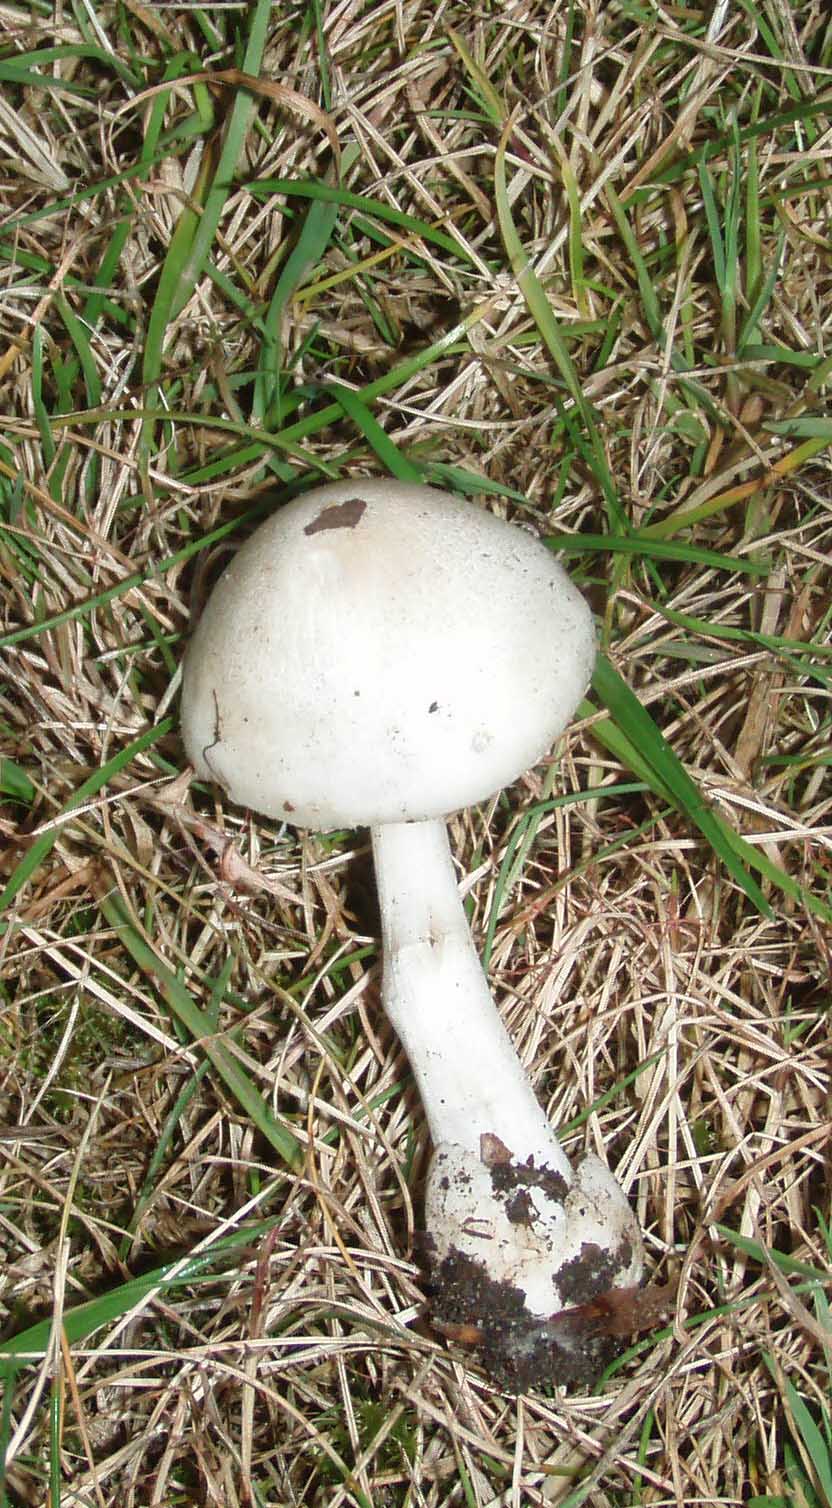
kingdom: Fungi
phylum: Basidiomycota
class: Agaricomycetes
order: Agaricales
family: Pluteaceae
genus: Volvariella
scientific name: Volvariella hypopithys
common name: dunstokket posesvamp
